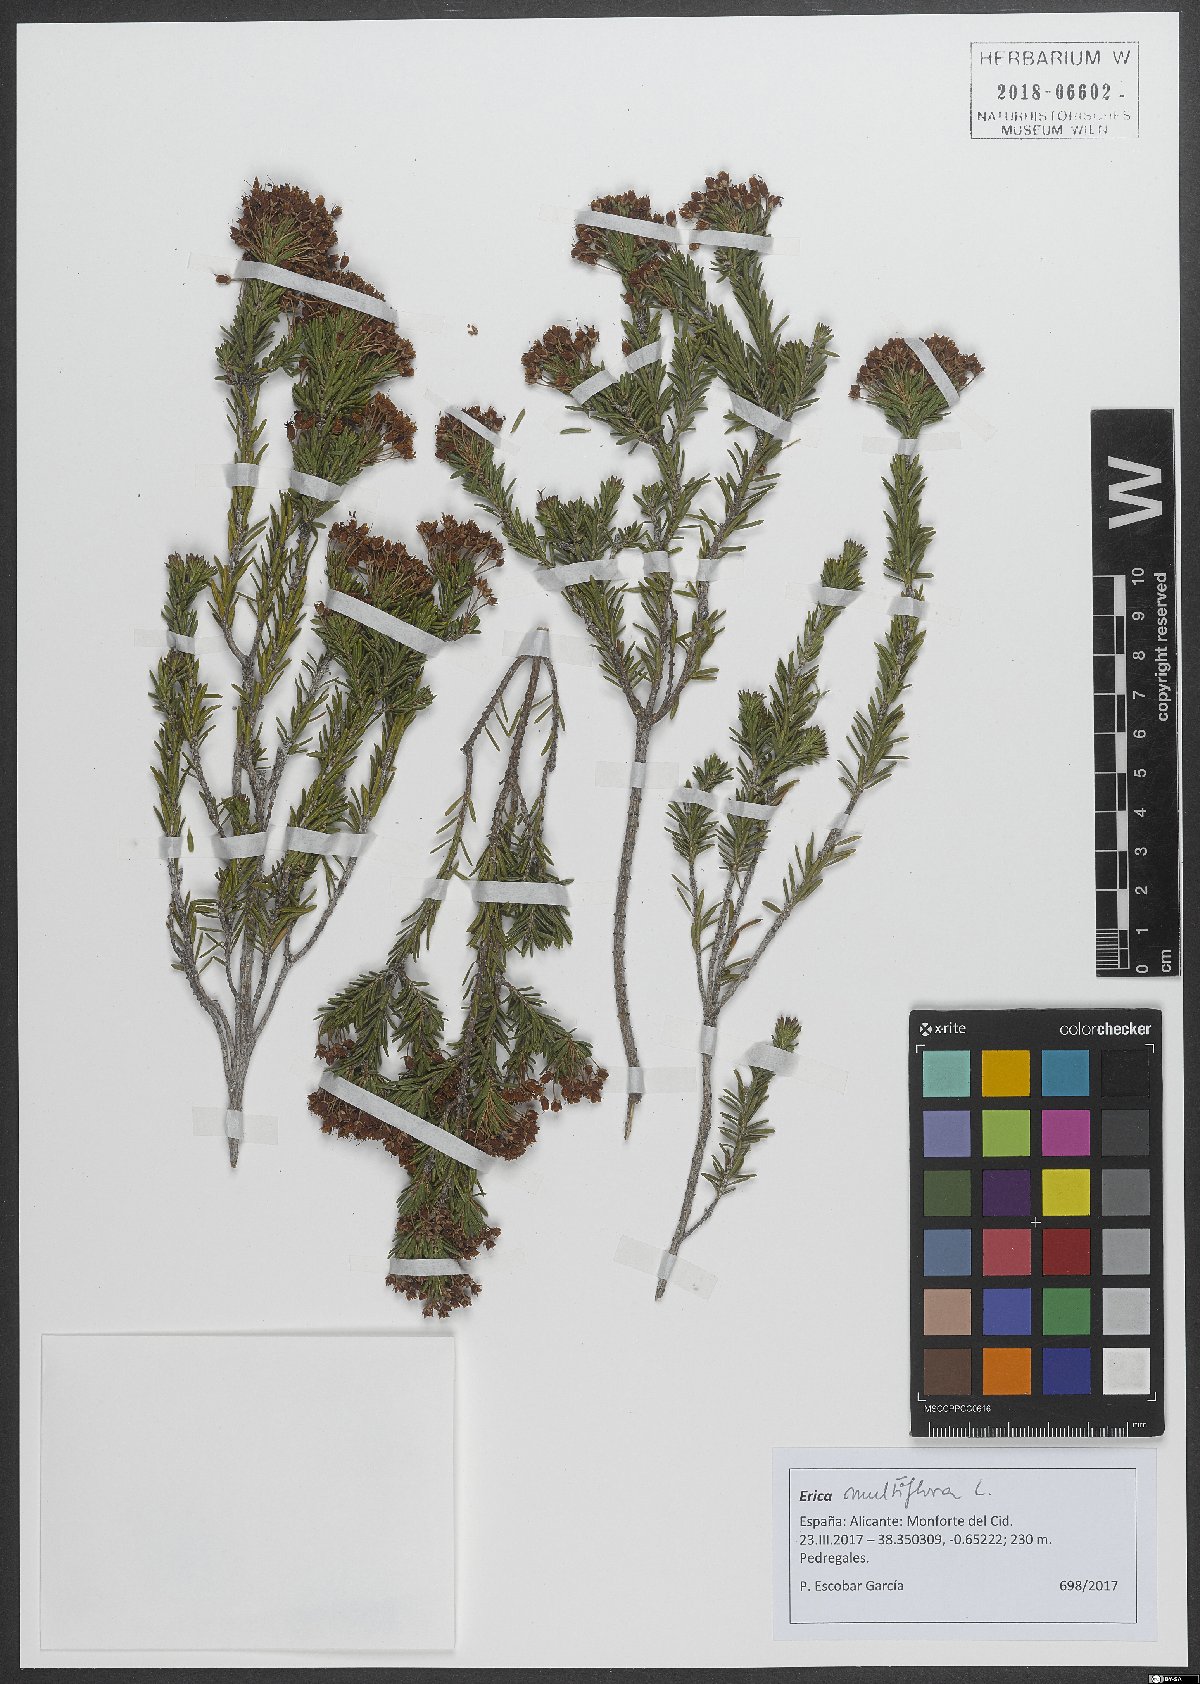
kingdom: Plantae
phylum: Tracheophyta
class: Magnoliopsida
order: Ericales
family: Ericaceae
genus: Erica
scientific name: Erica multiflora
